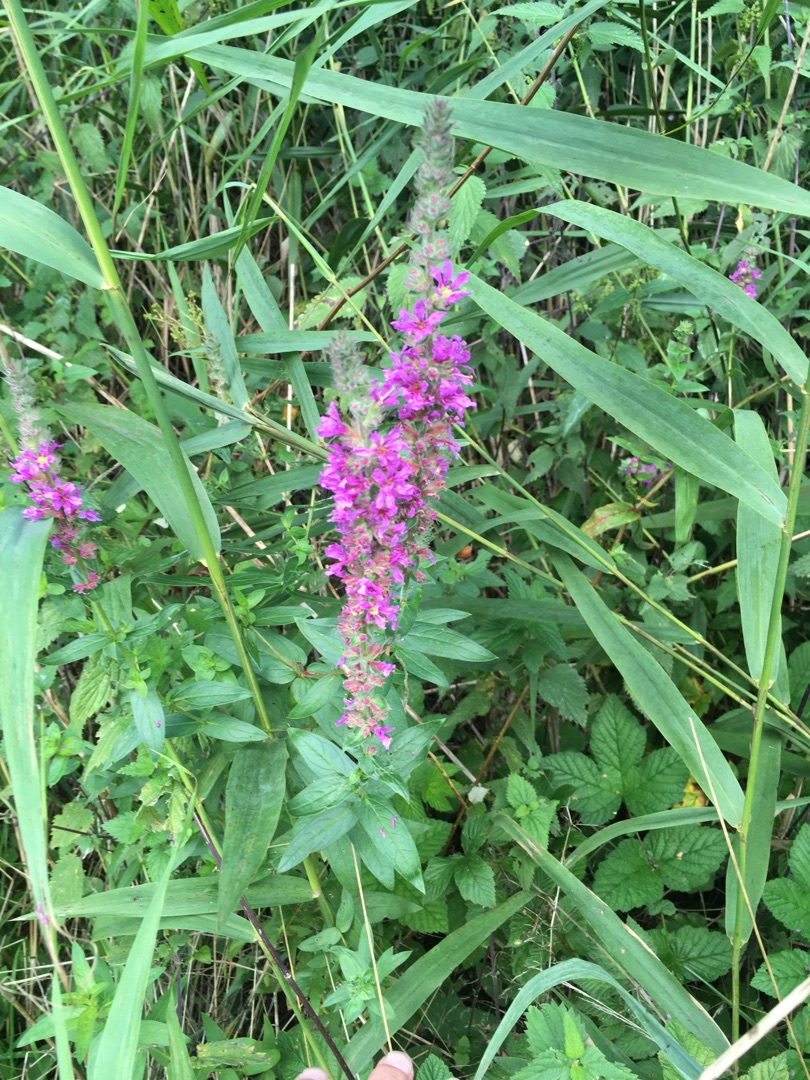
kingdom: Plantae
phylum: Tracheophyta
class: Magnoliopsida
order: Myrtales
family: Lythraceae
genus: Lythrum
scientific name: Lythrum salicaria
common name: Kattehale
